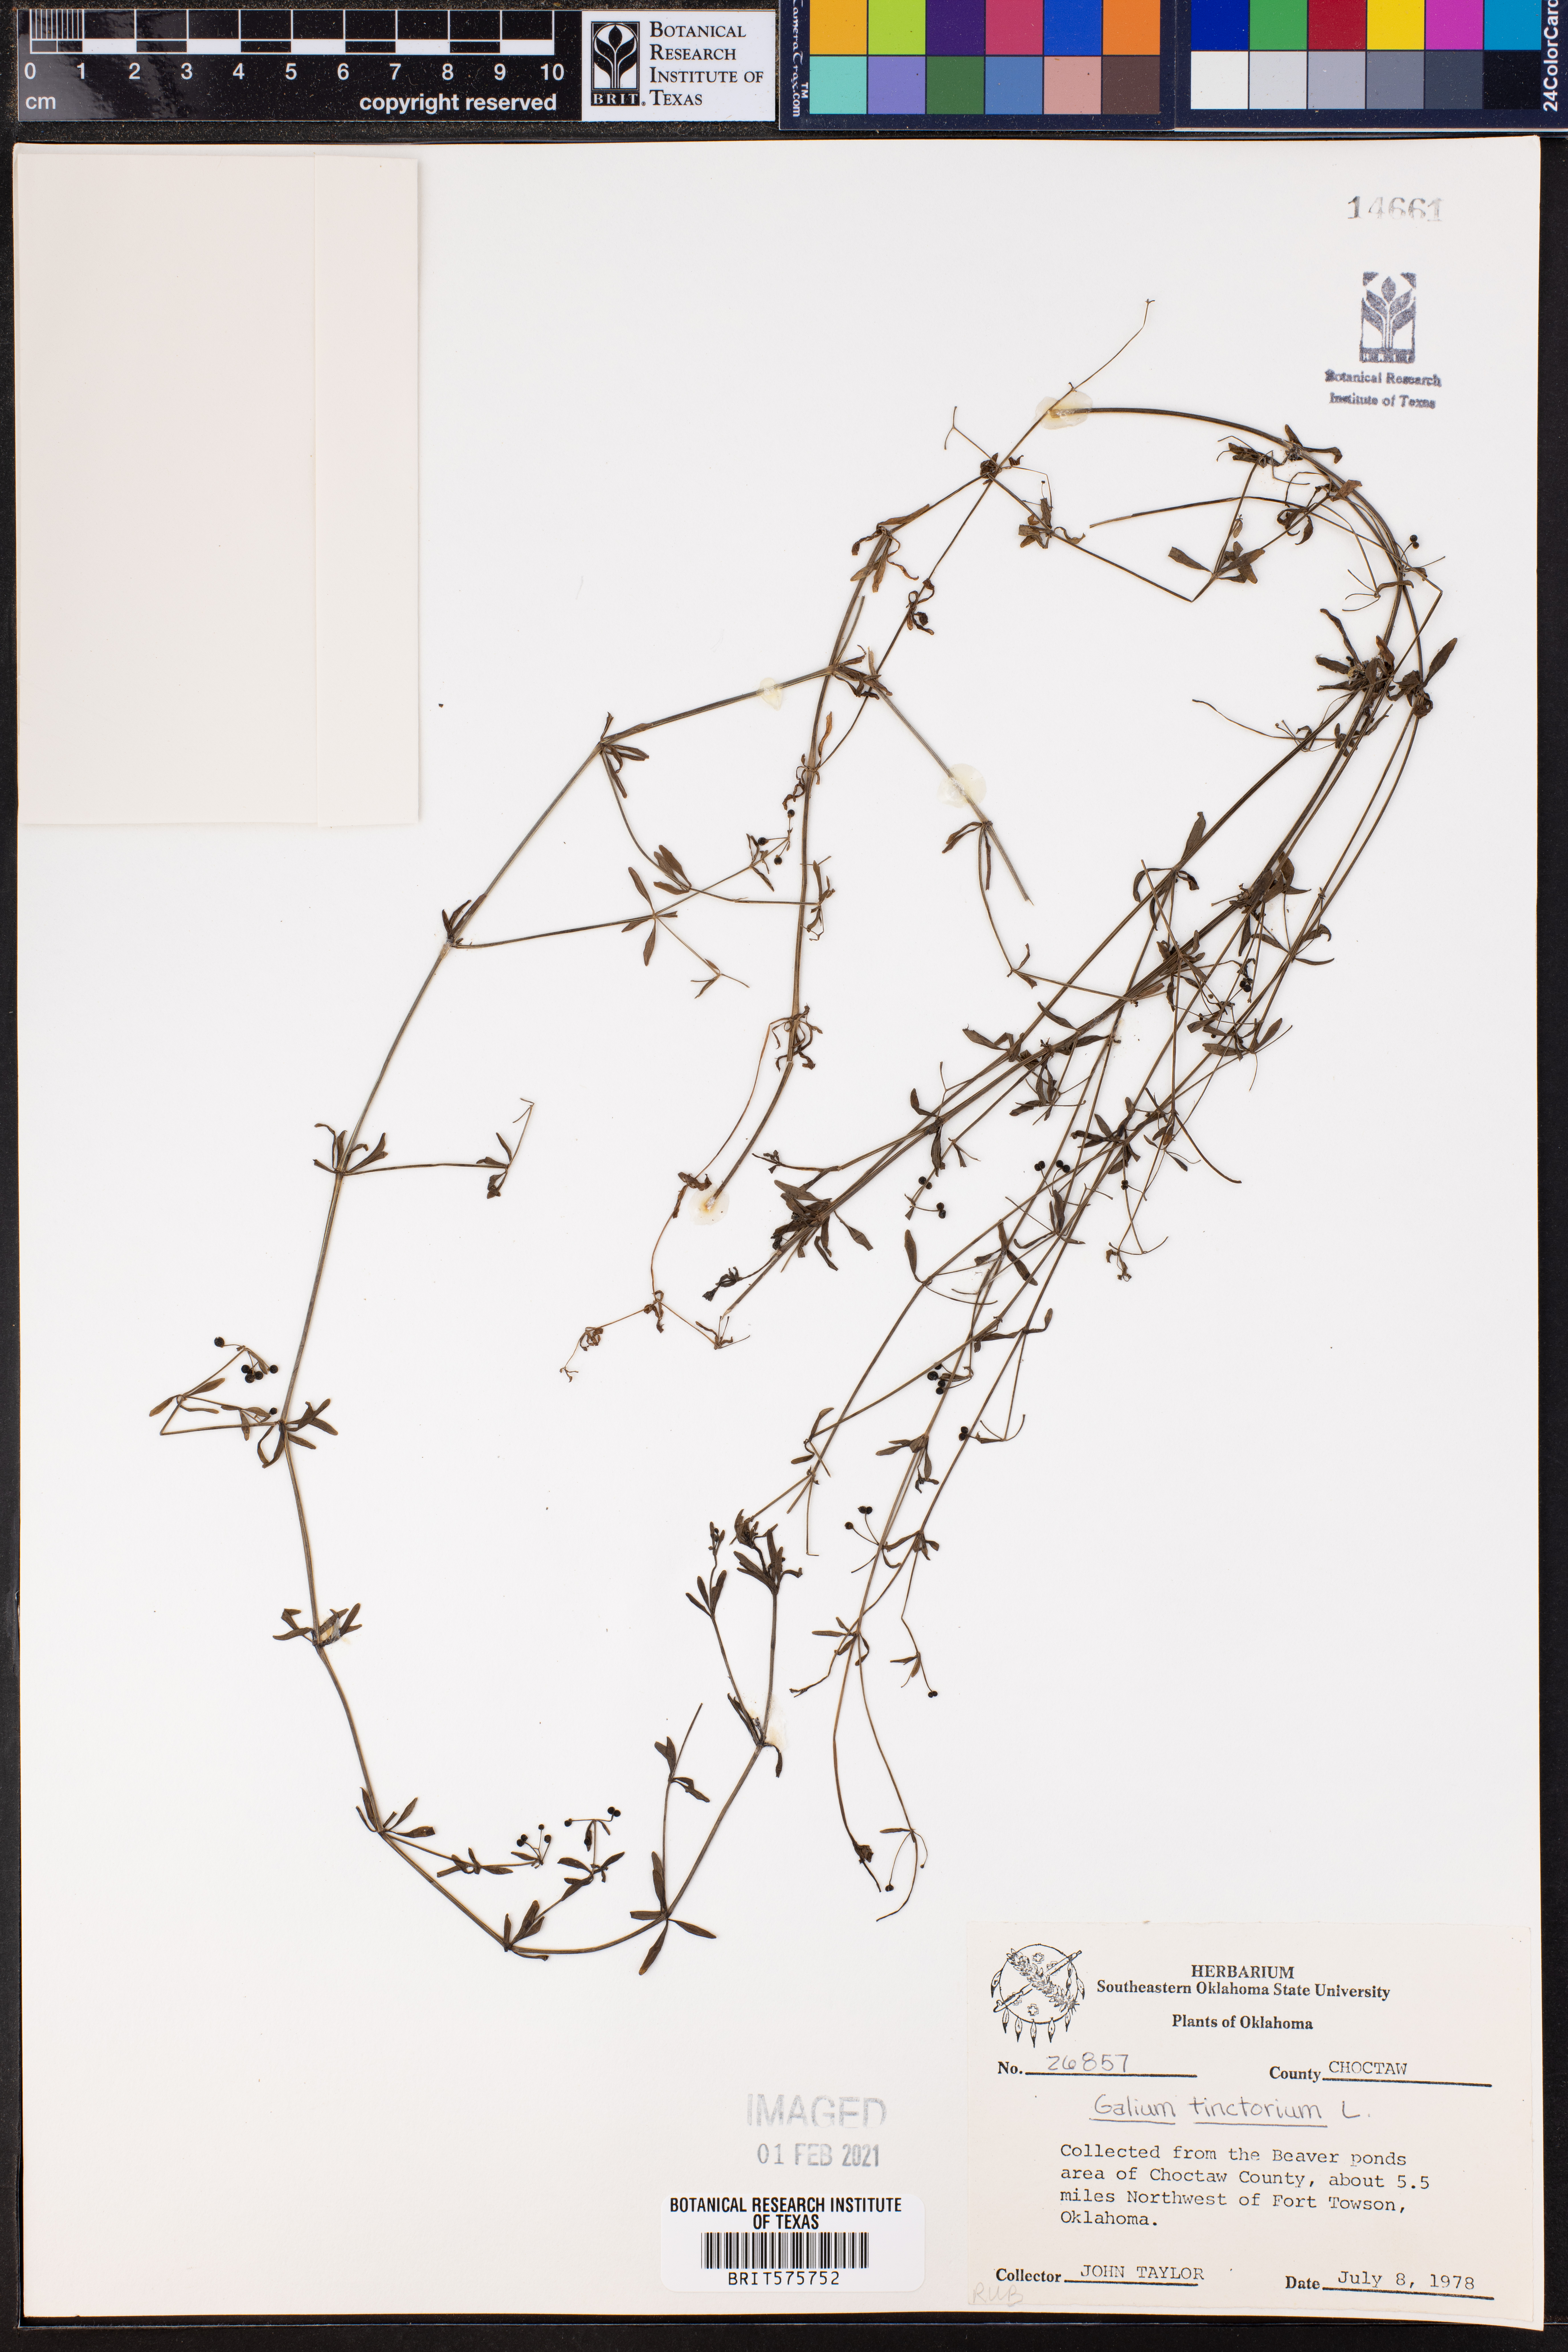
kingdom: Plantae
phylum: Tracheophyta
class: Magnoliopsida
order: Gentianales
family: Rubiaceae
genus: Asperula
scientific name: Asperula tinctoria
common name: Dyer's woodruff
